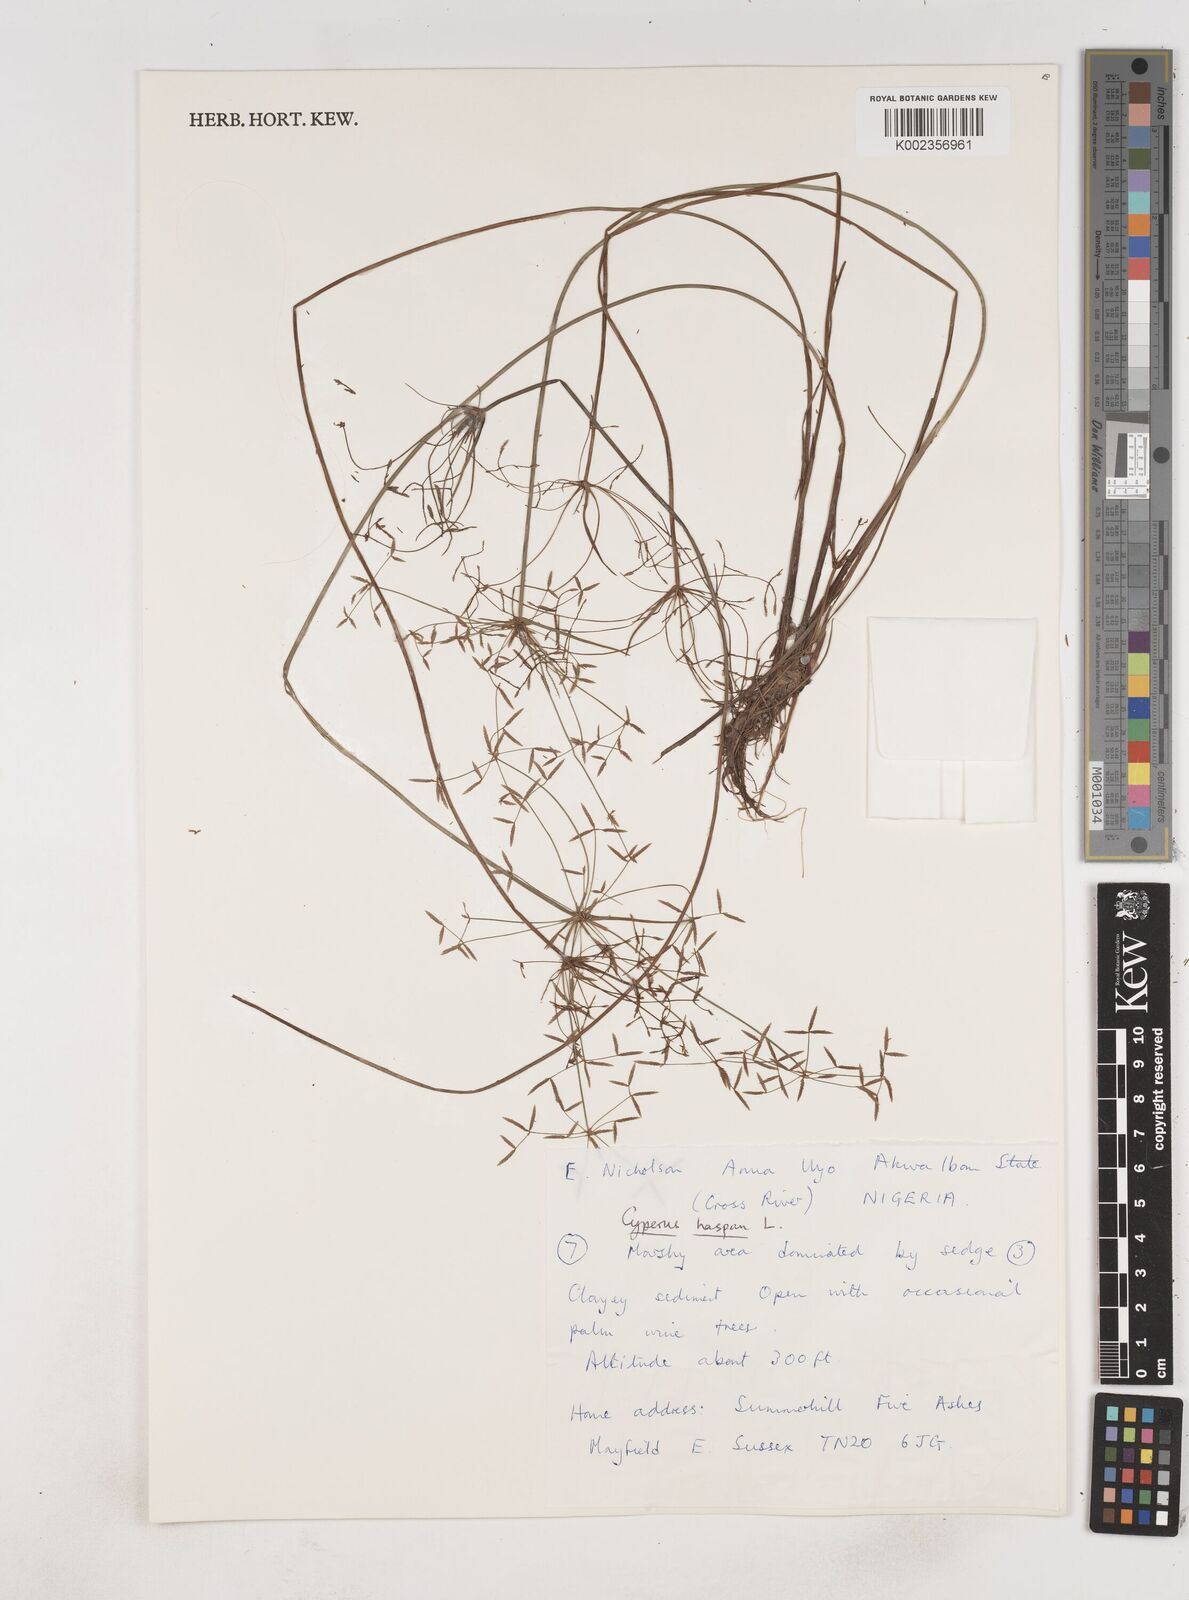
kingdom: Plantae
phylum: Tracheophyta
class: Liliopsida
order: Poales
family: Cyperaceae
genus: Cyperus
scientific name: Cyperus haspan
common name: Haspan flatsedge
